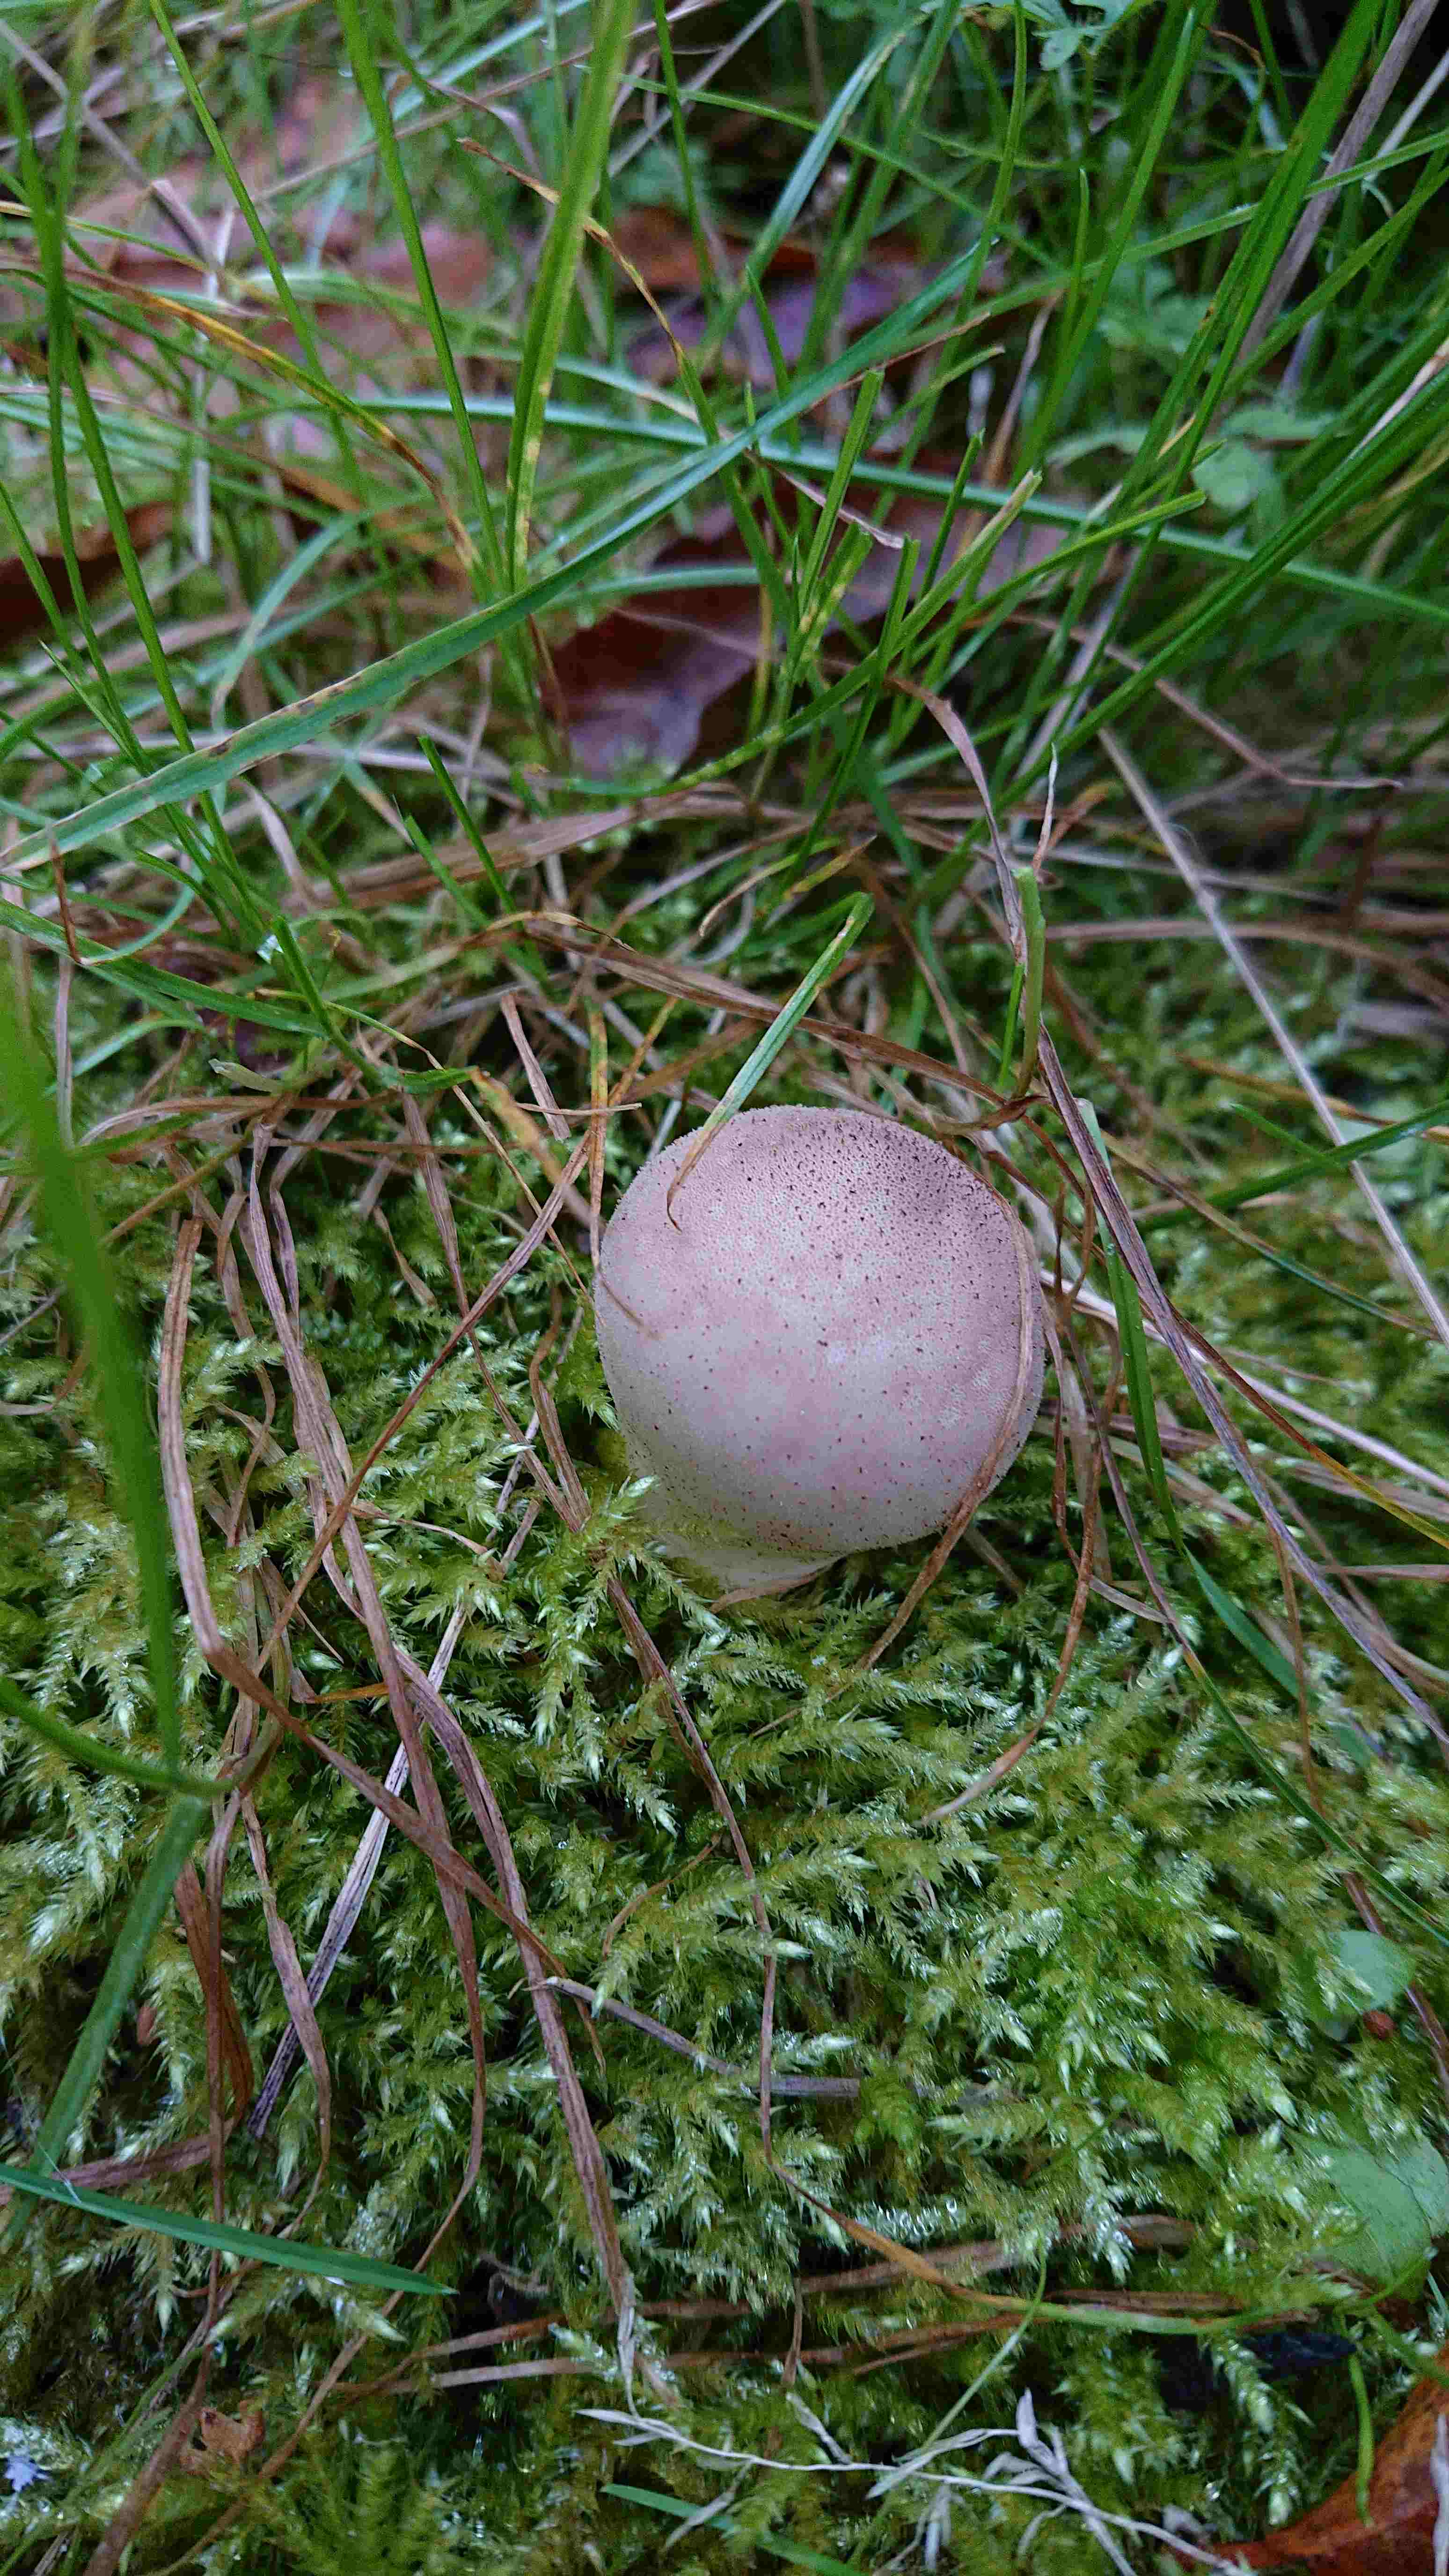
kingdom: Fungi
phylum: Basidiomycota
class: Agaricomycetes
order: Agaricales
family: Agaricaceae
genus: Lycoperdon
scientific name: Lycoperdon
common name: støvbold
